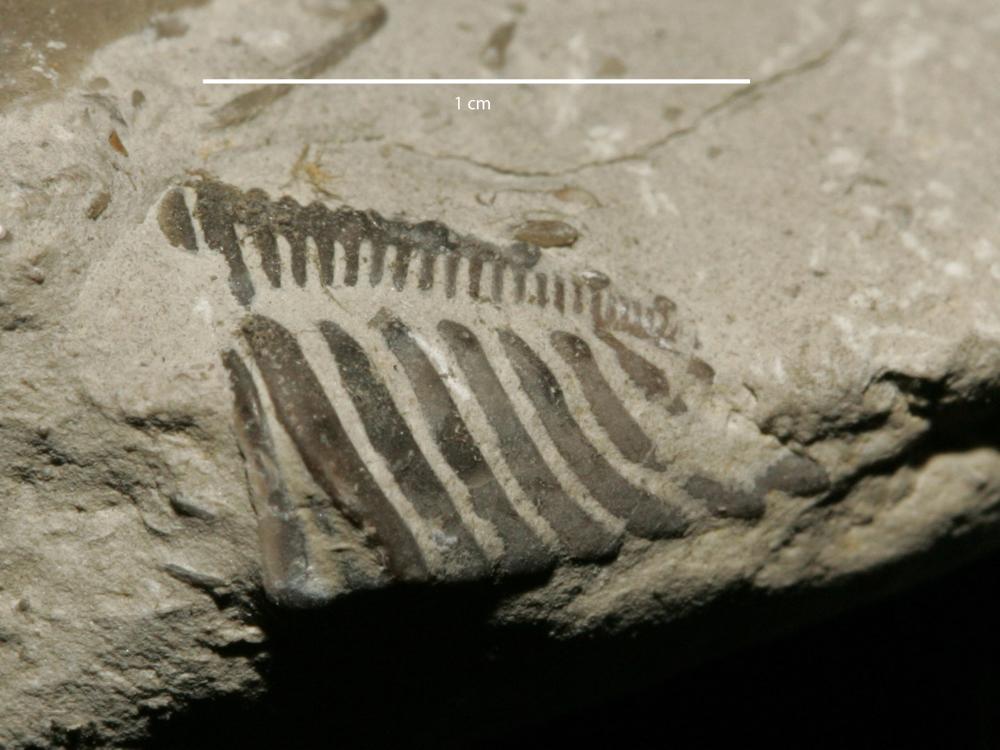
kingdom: Animalia
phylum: Arthropoda
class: Trilobita
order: Phacopida
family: Encrinuridae
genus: Encrinurus
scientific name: Encrinurus punctatus
